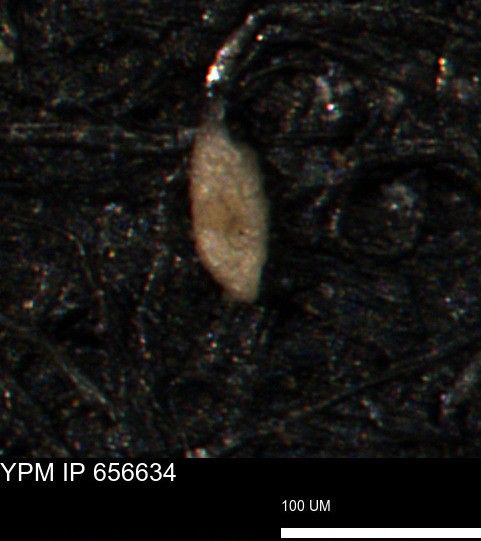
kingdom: Chromista
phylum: Foraminifera
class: Globothalamea
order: Lituolida
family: Rzehakinidae
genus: Spirolocammina
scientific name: Spirolocammina planula
